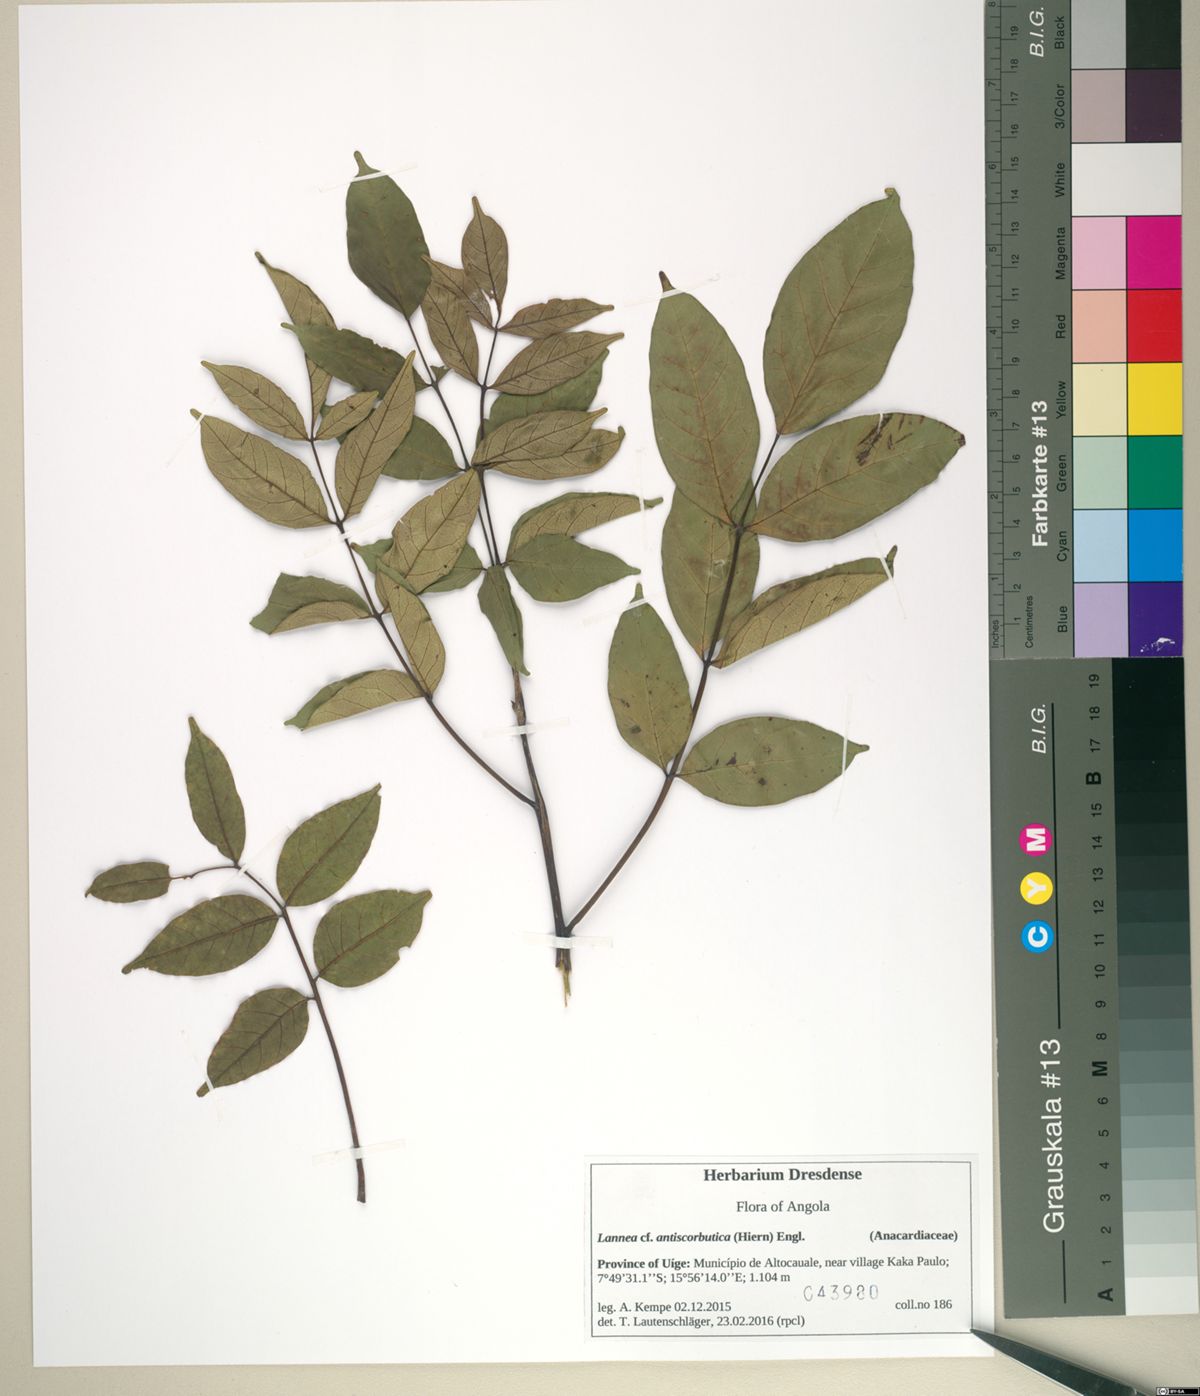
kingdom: Plantae
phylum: Tracheophyta
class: Magnoliopsida
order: Sapindales
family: Anacardiaceae
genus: Lannea
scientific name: Lannea antiscorbutica
